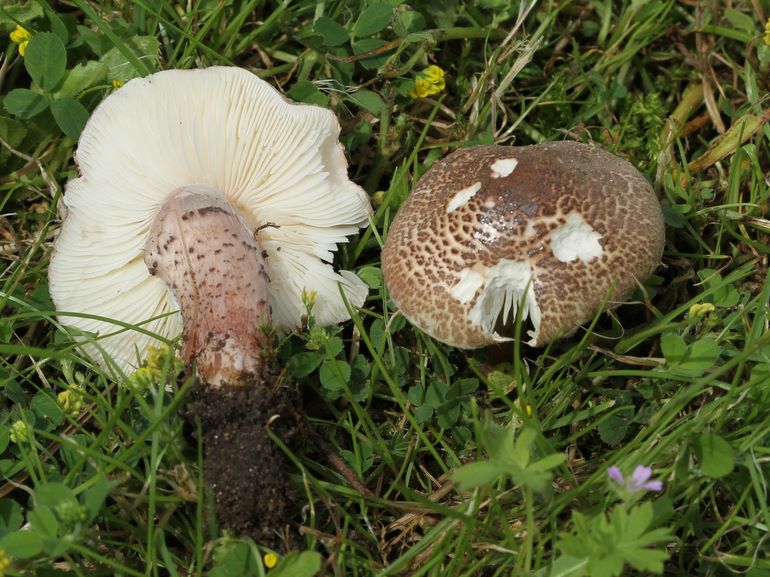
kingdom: Fungi
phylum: Basidiomycota
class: Agaricomycetes
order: Agaricales
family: Agaricaceae
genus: Lepiota
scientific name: Lepiota brunneoincarnata
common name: brunrød parasolhat
